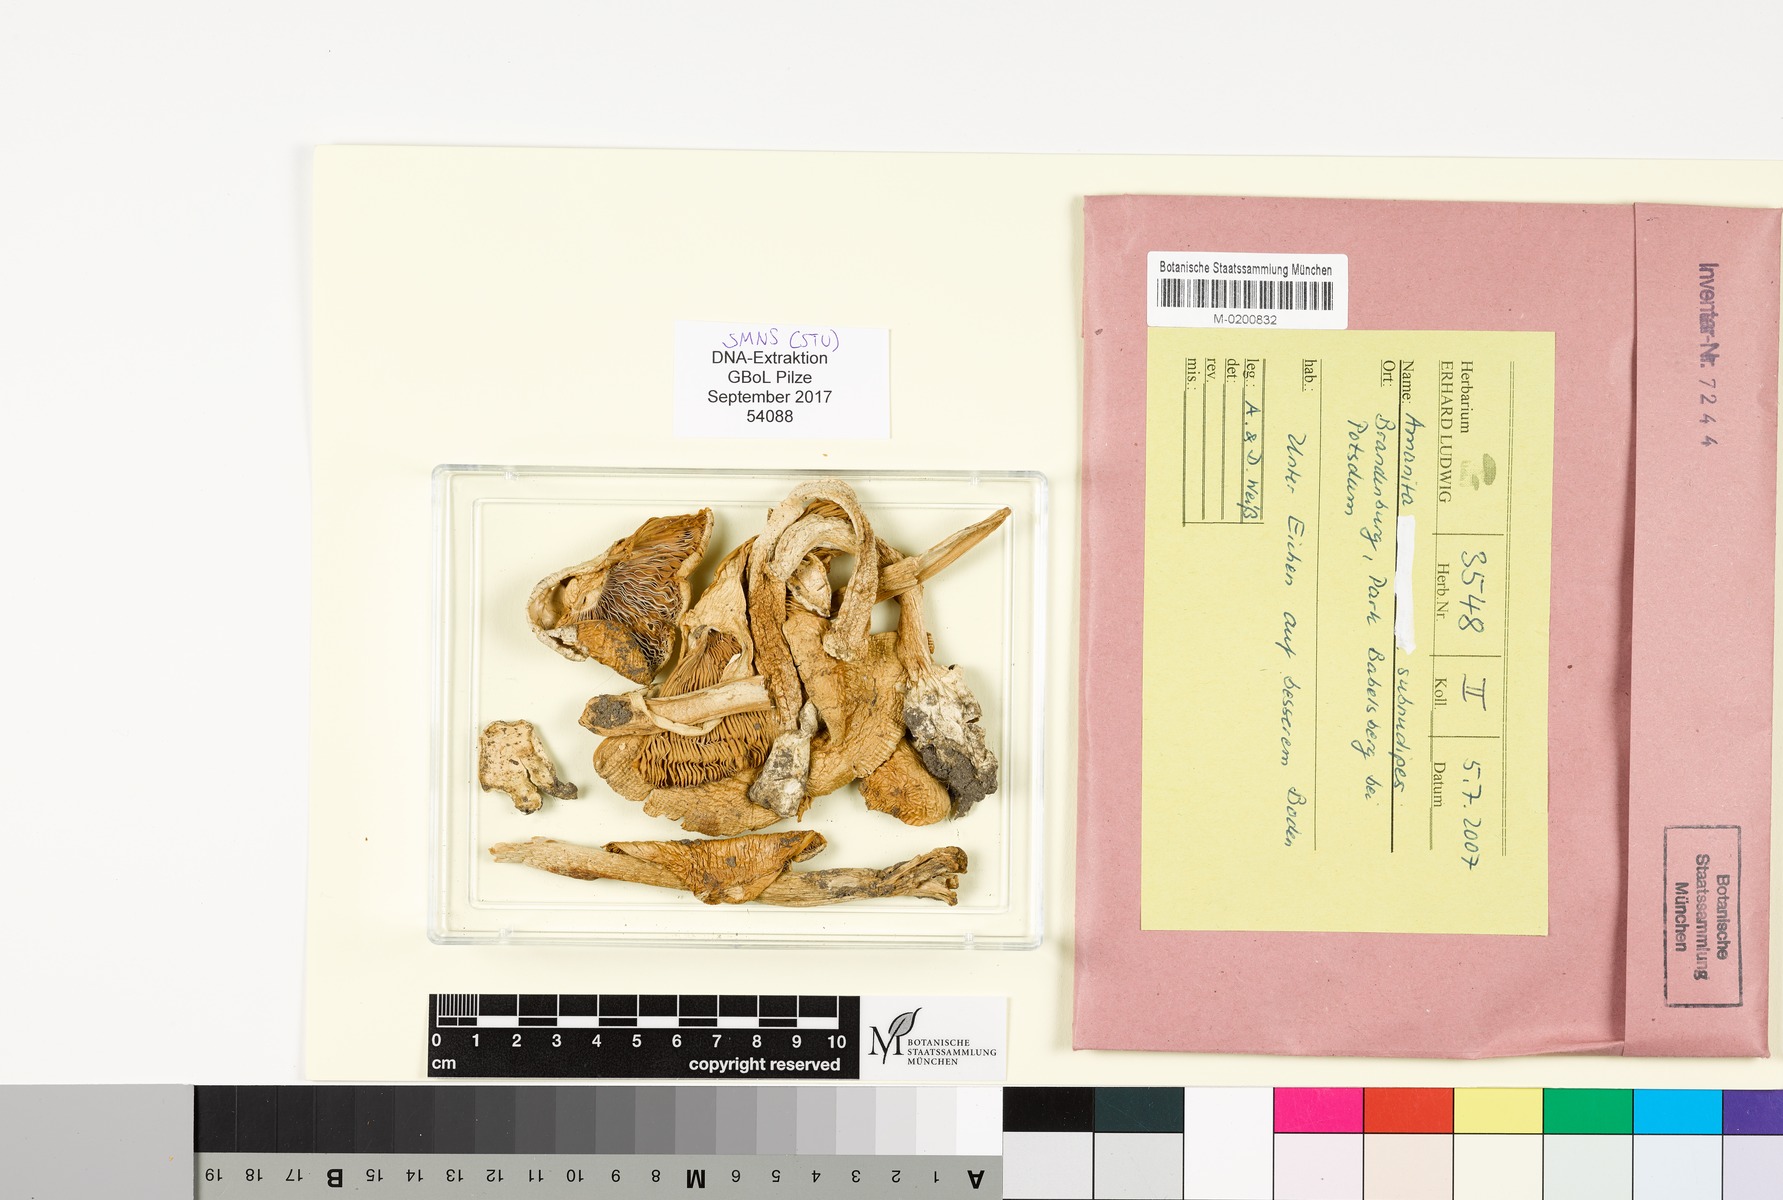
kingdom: Fungi
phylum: Basidiomycota
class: Agaricomycetes
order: Agaricales
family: Amanitaceae
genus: Amanita
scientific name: Amanita subnudipes
